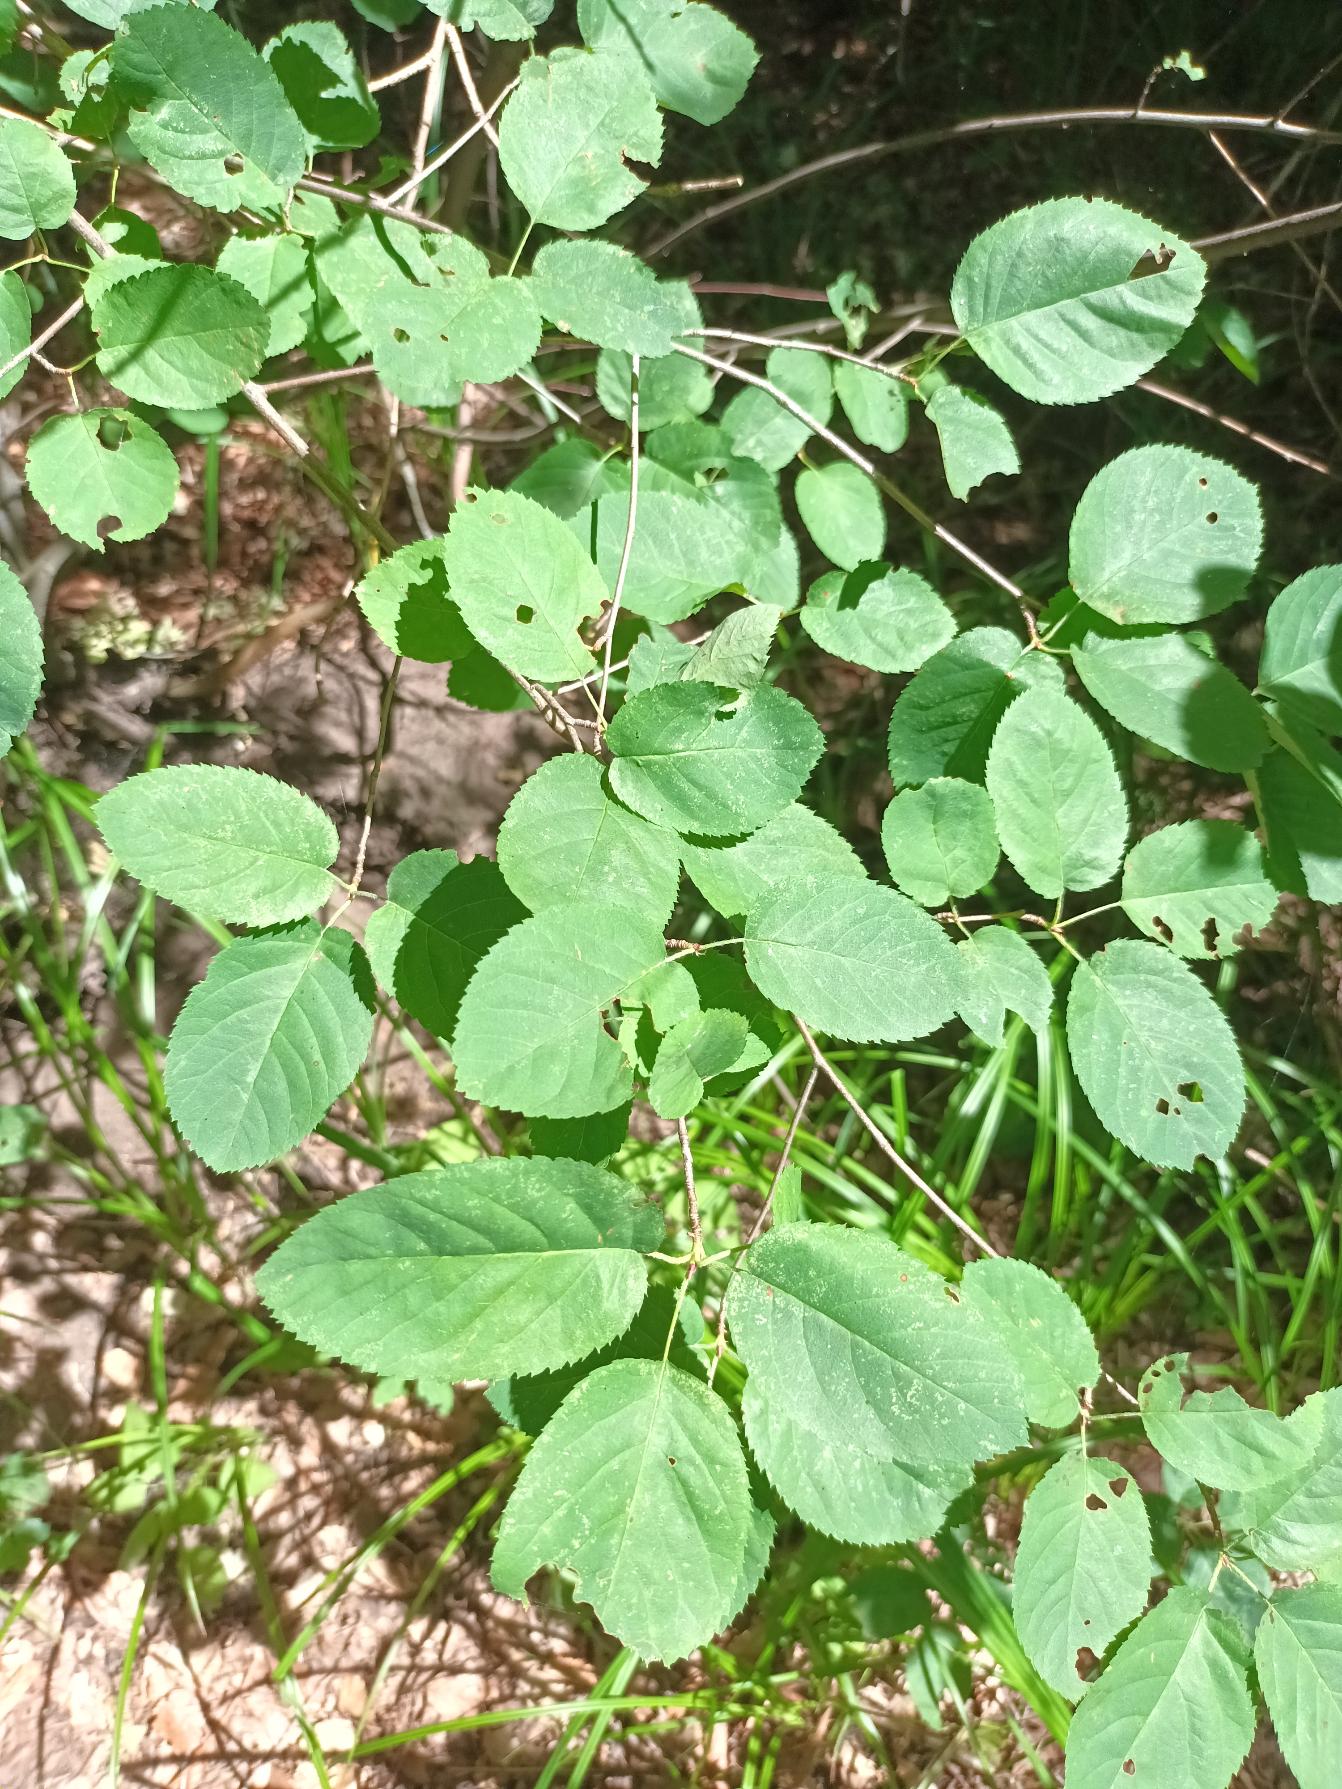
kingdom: Plantae
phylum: Tracheophyta
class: Magnoliopsida
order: Rosales
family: Rosaceae
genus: Amelanchier
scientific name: Amelanchier lamarckii
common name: Langstilket bærmispel
